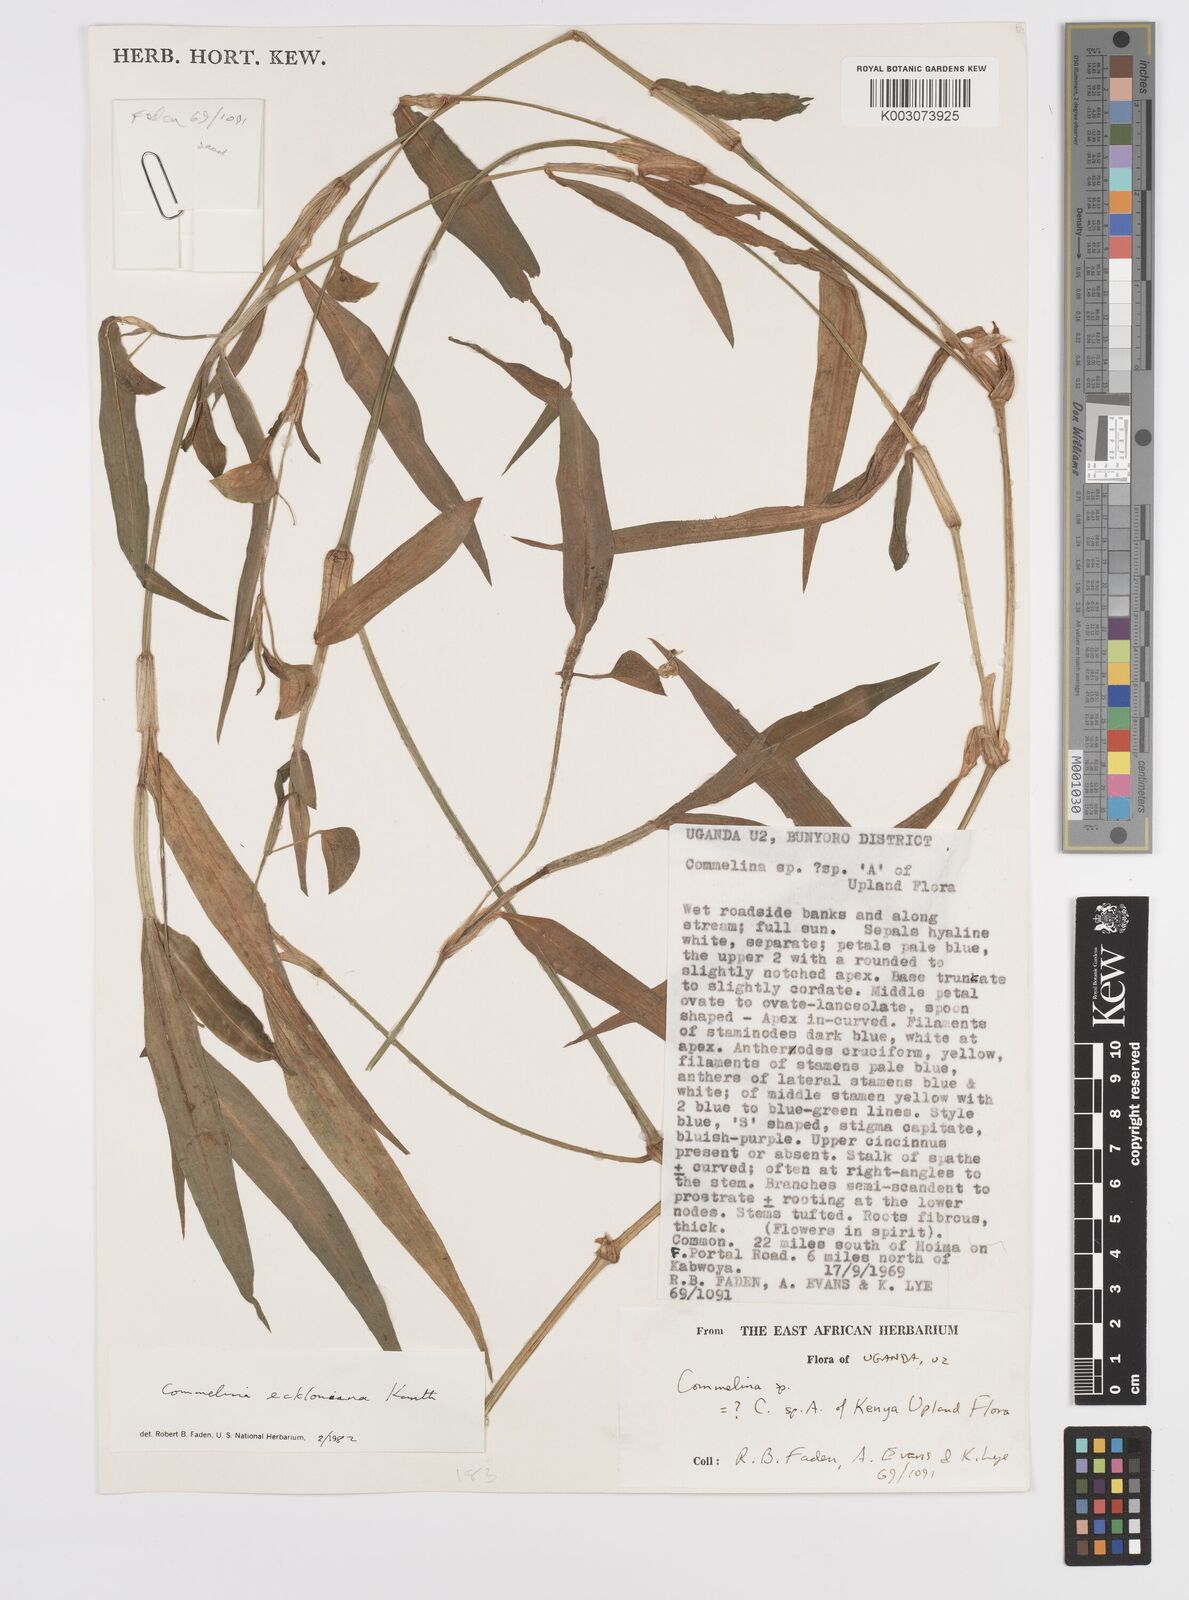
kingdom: Plantae
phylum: Tracheophyta
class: Liliopsida
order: Commelinales
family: Commelinaceae
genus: Commelina
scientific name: Commelina eckloniana
